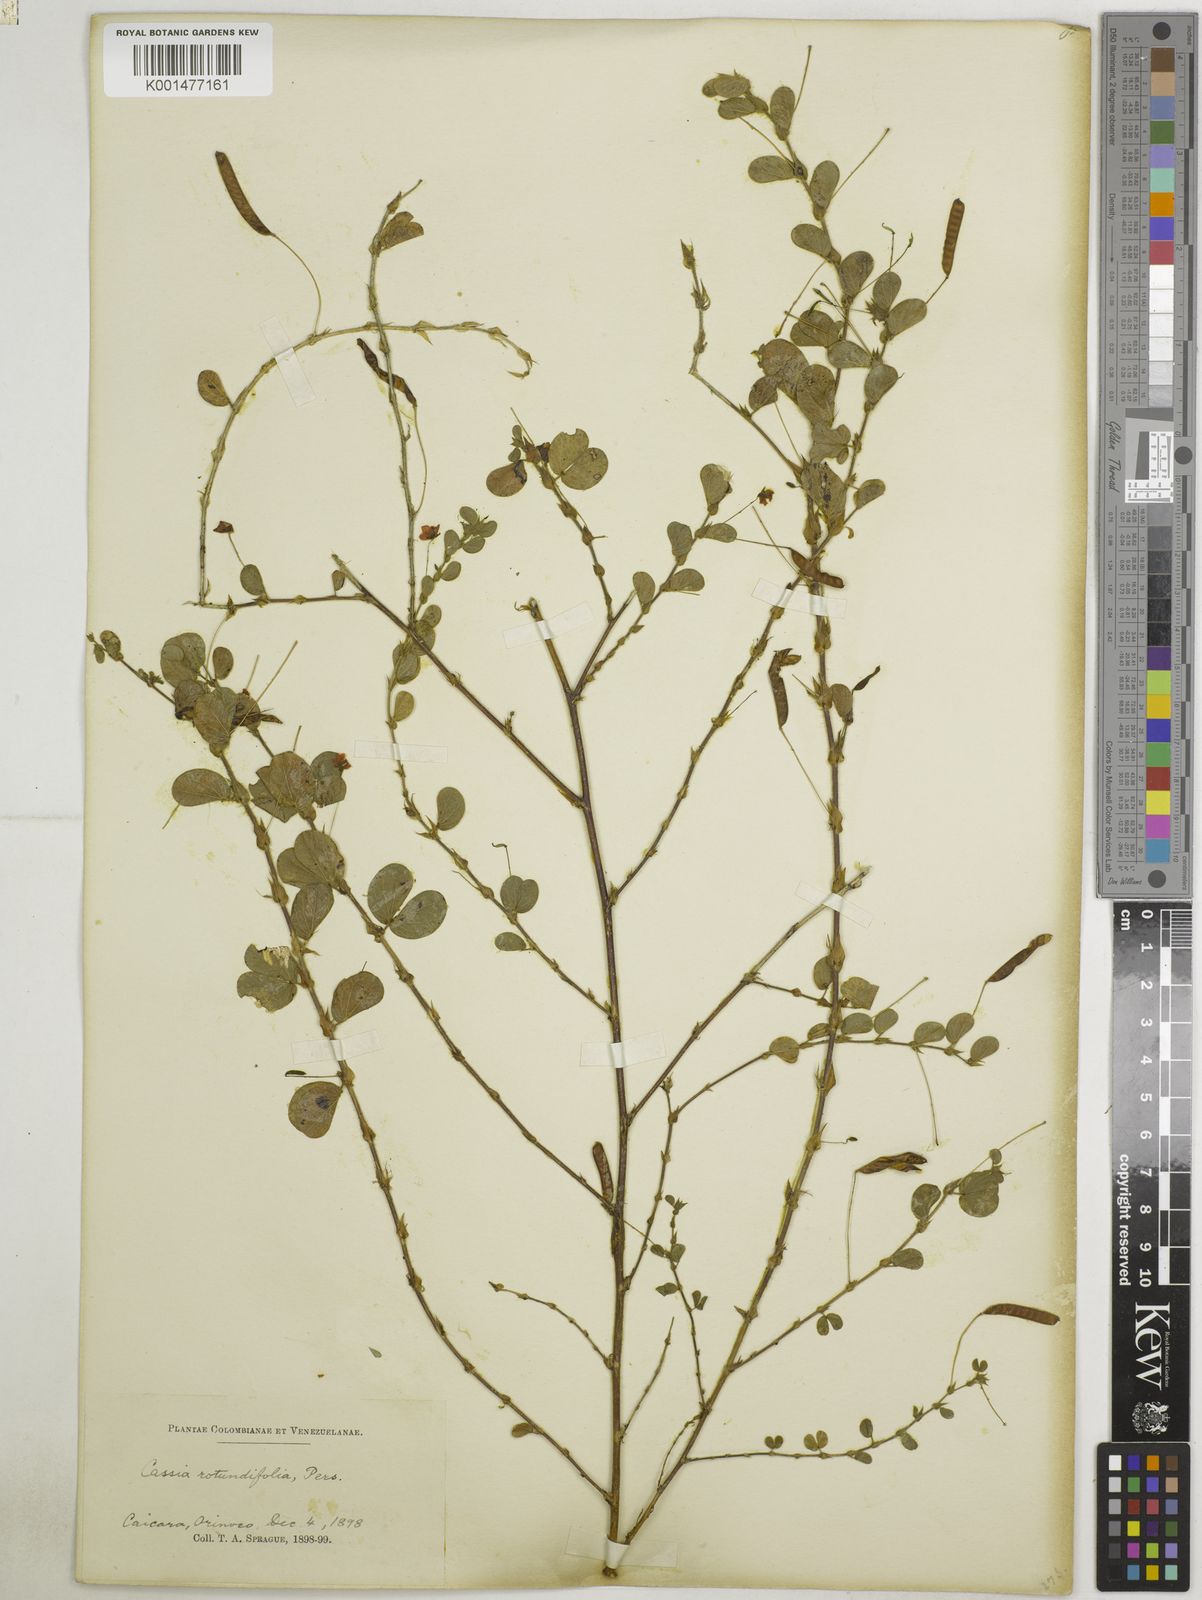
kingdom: Plantae
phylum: Tracheophyta
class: Magnoliopsida
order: Fabales
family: Fabaceae
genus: Chamaecrista
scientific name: Chamaecrista rotundifolia
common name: Round-leaf cassia
